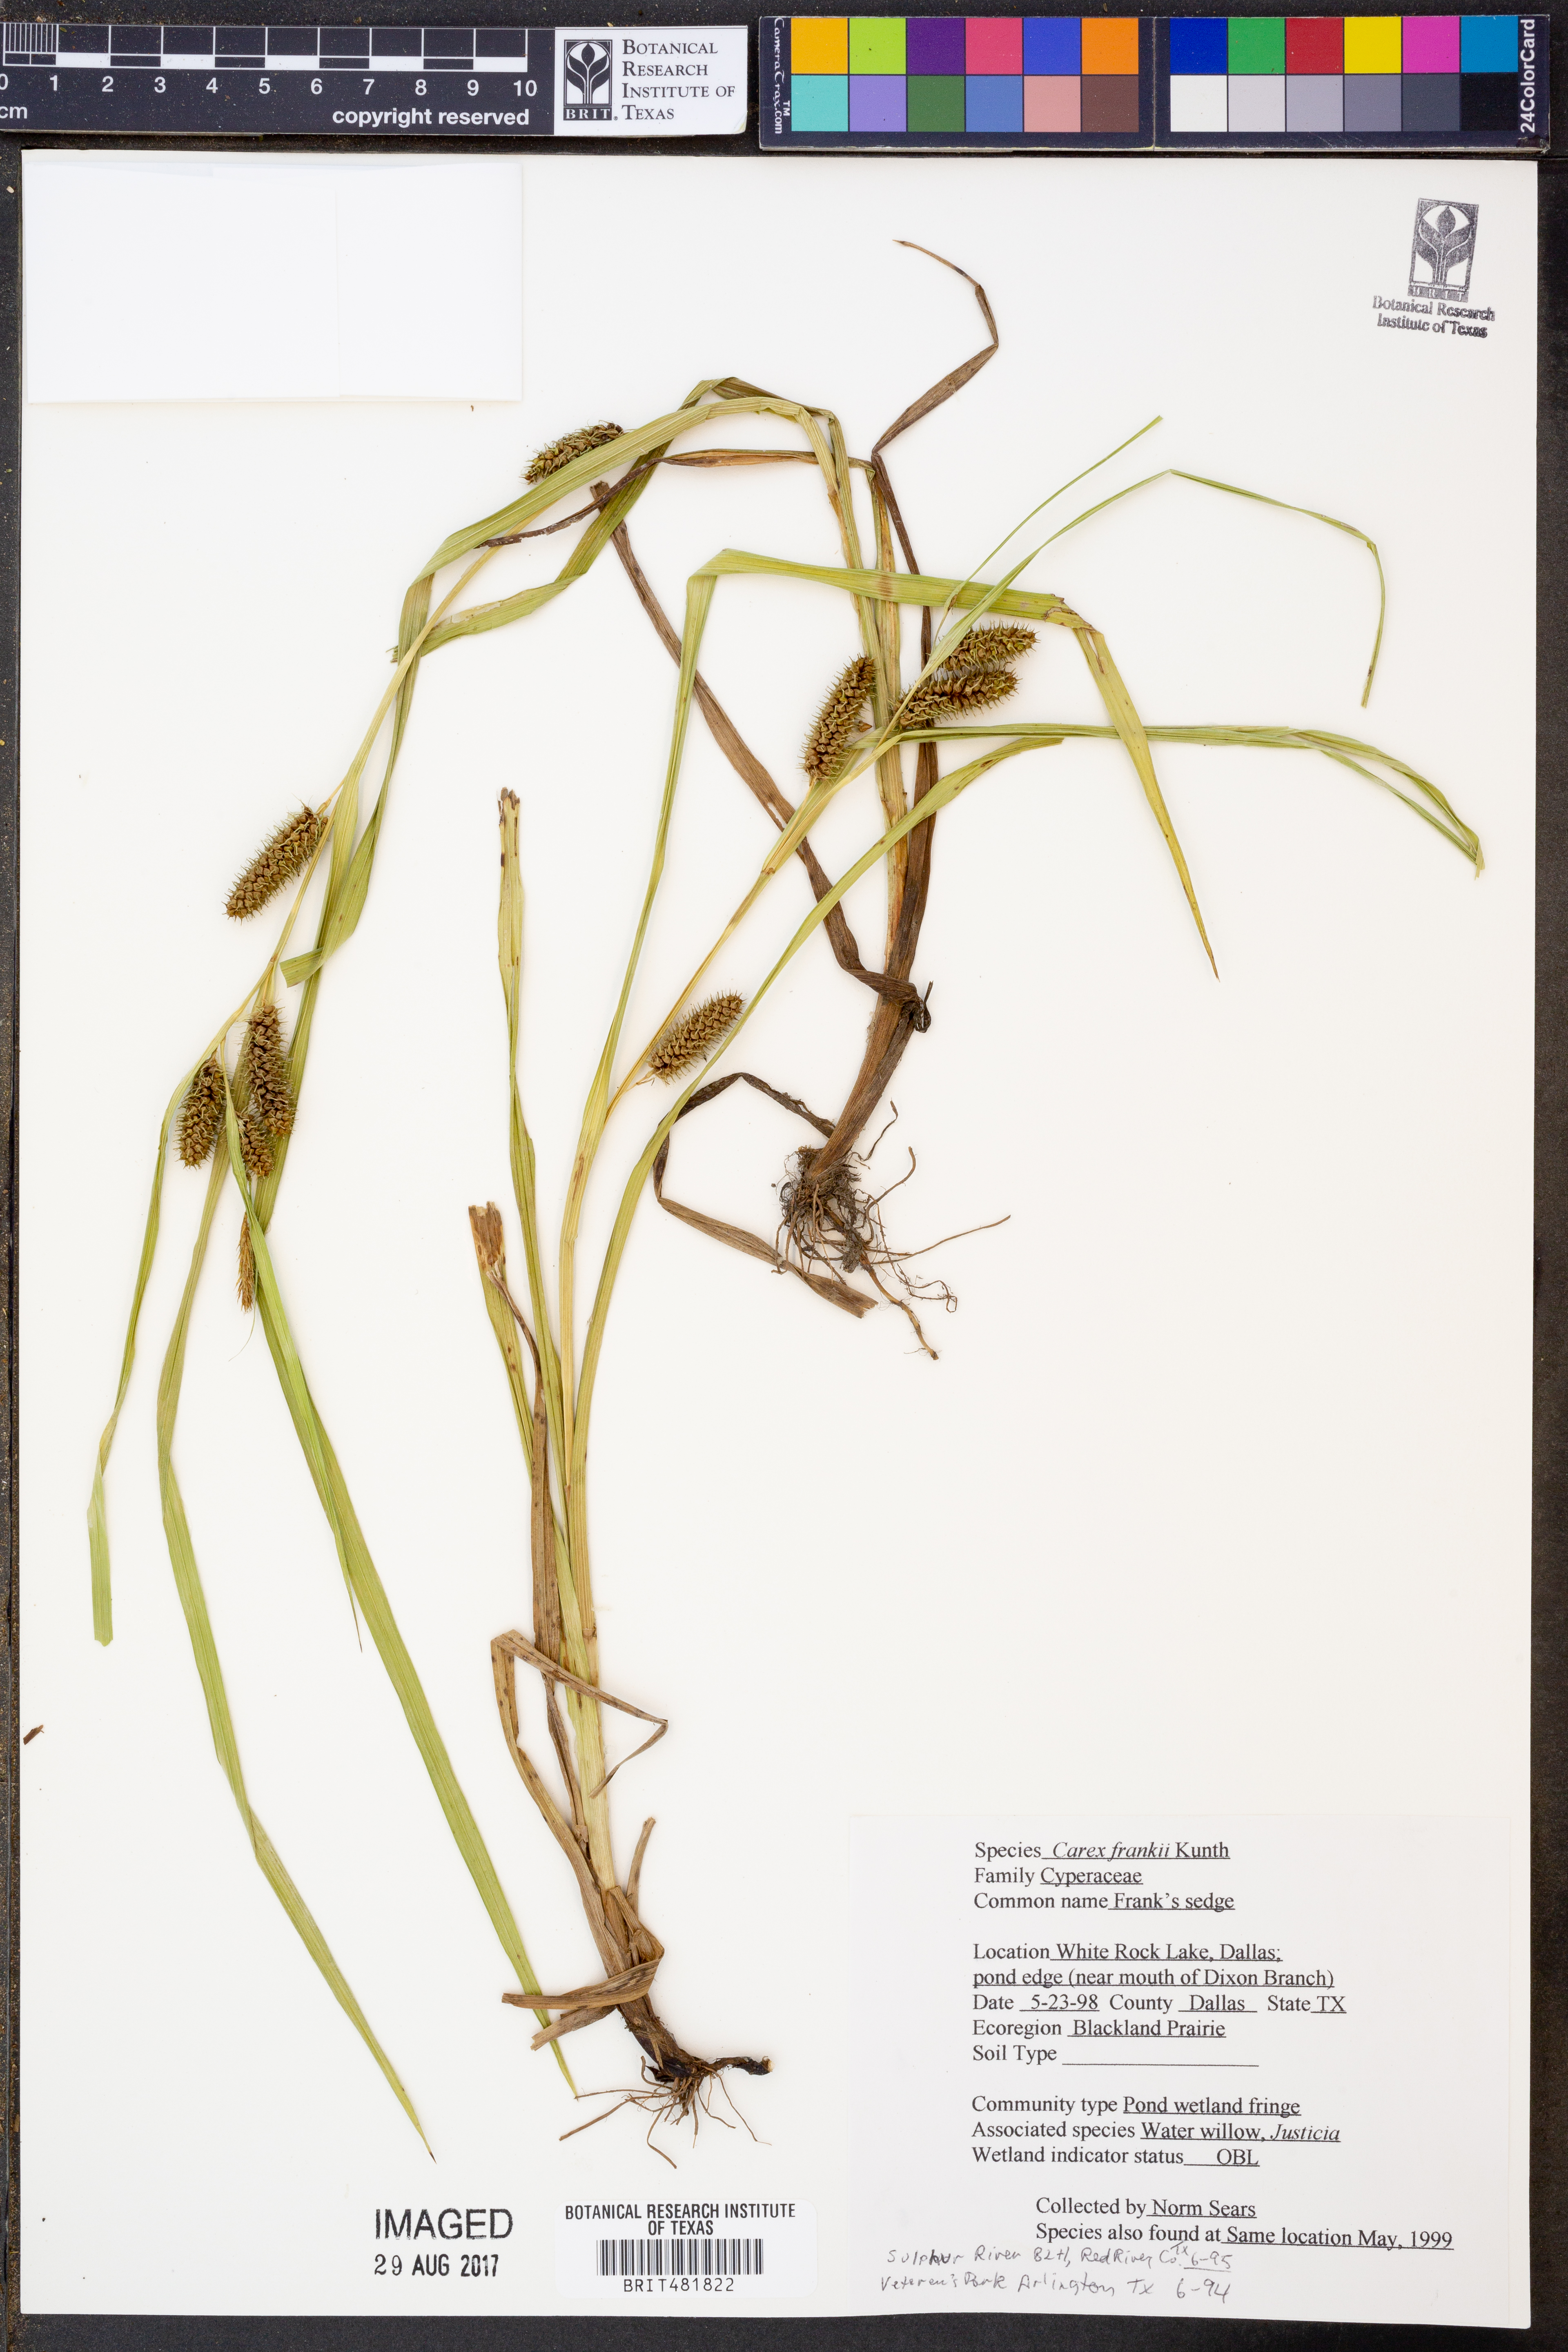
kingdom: Plantae
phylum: Tracheophyta
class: Liliopsida
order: Poales
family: Cyperaceae
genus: Carex
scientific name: Carex frankii
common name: Frank's sedge
